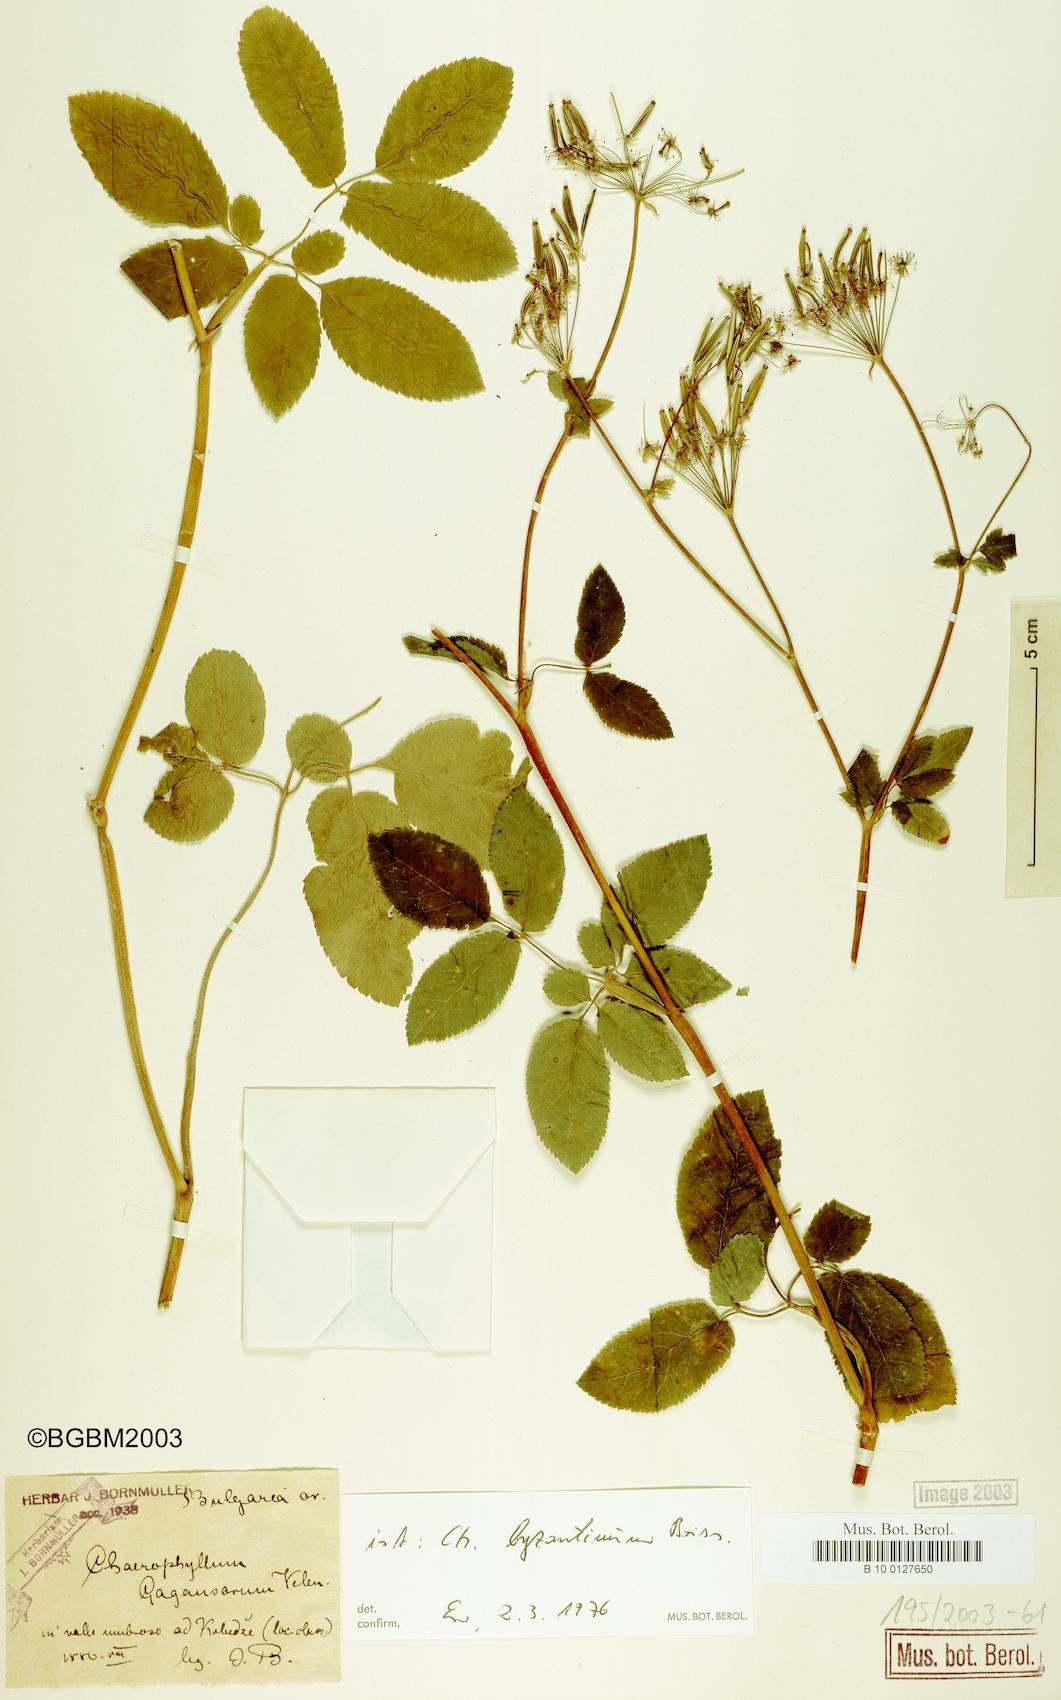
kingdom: Plantae
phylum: Tracheophyta
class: Magnoliopsida
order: Apiales
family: Apiaceae
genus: Chaerophyllum
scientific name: Chaerophyllum byzantinum
